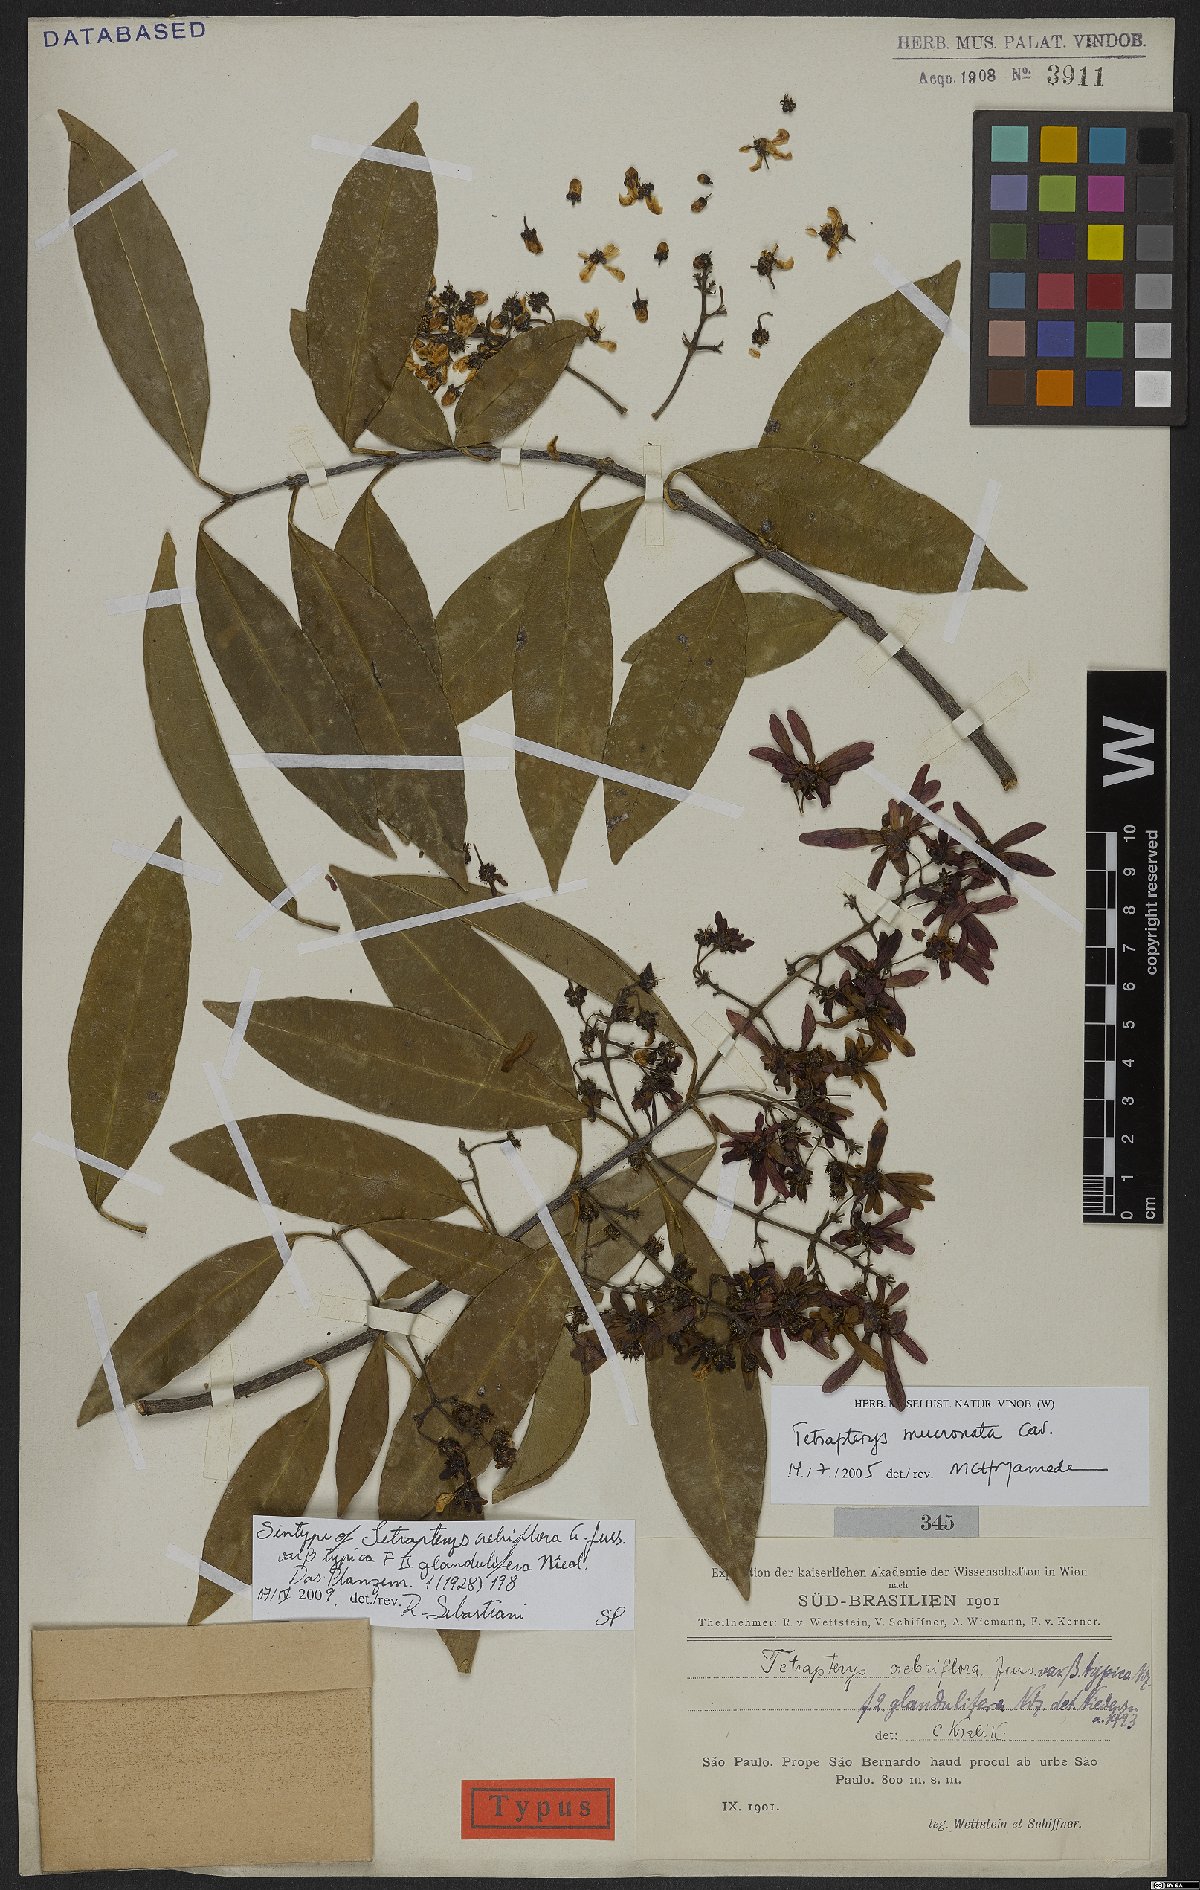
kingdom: Plantae
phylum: Tracheophyta
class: Magnoliopsida
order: Malpighiales
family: Malpighiaceae
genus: Tetrapterys
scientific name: Tetrapterys mucronata
